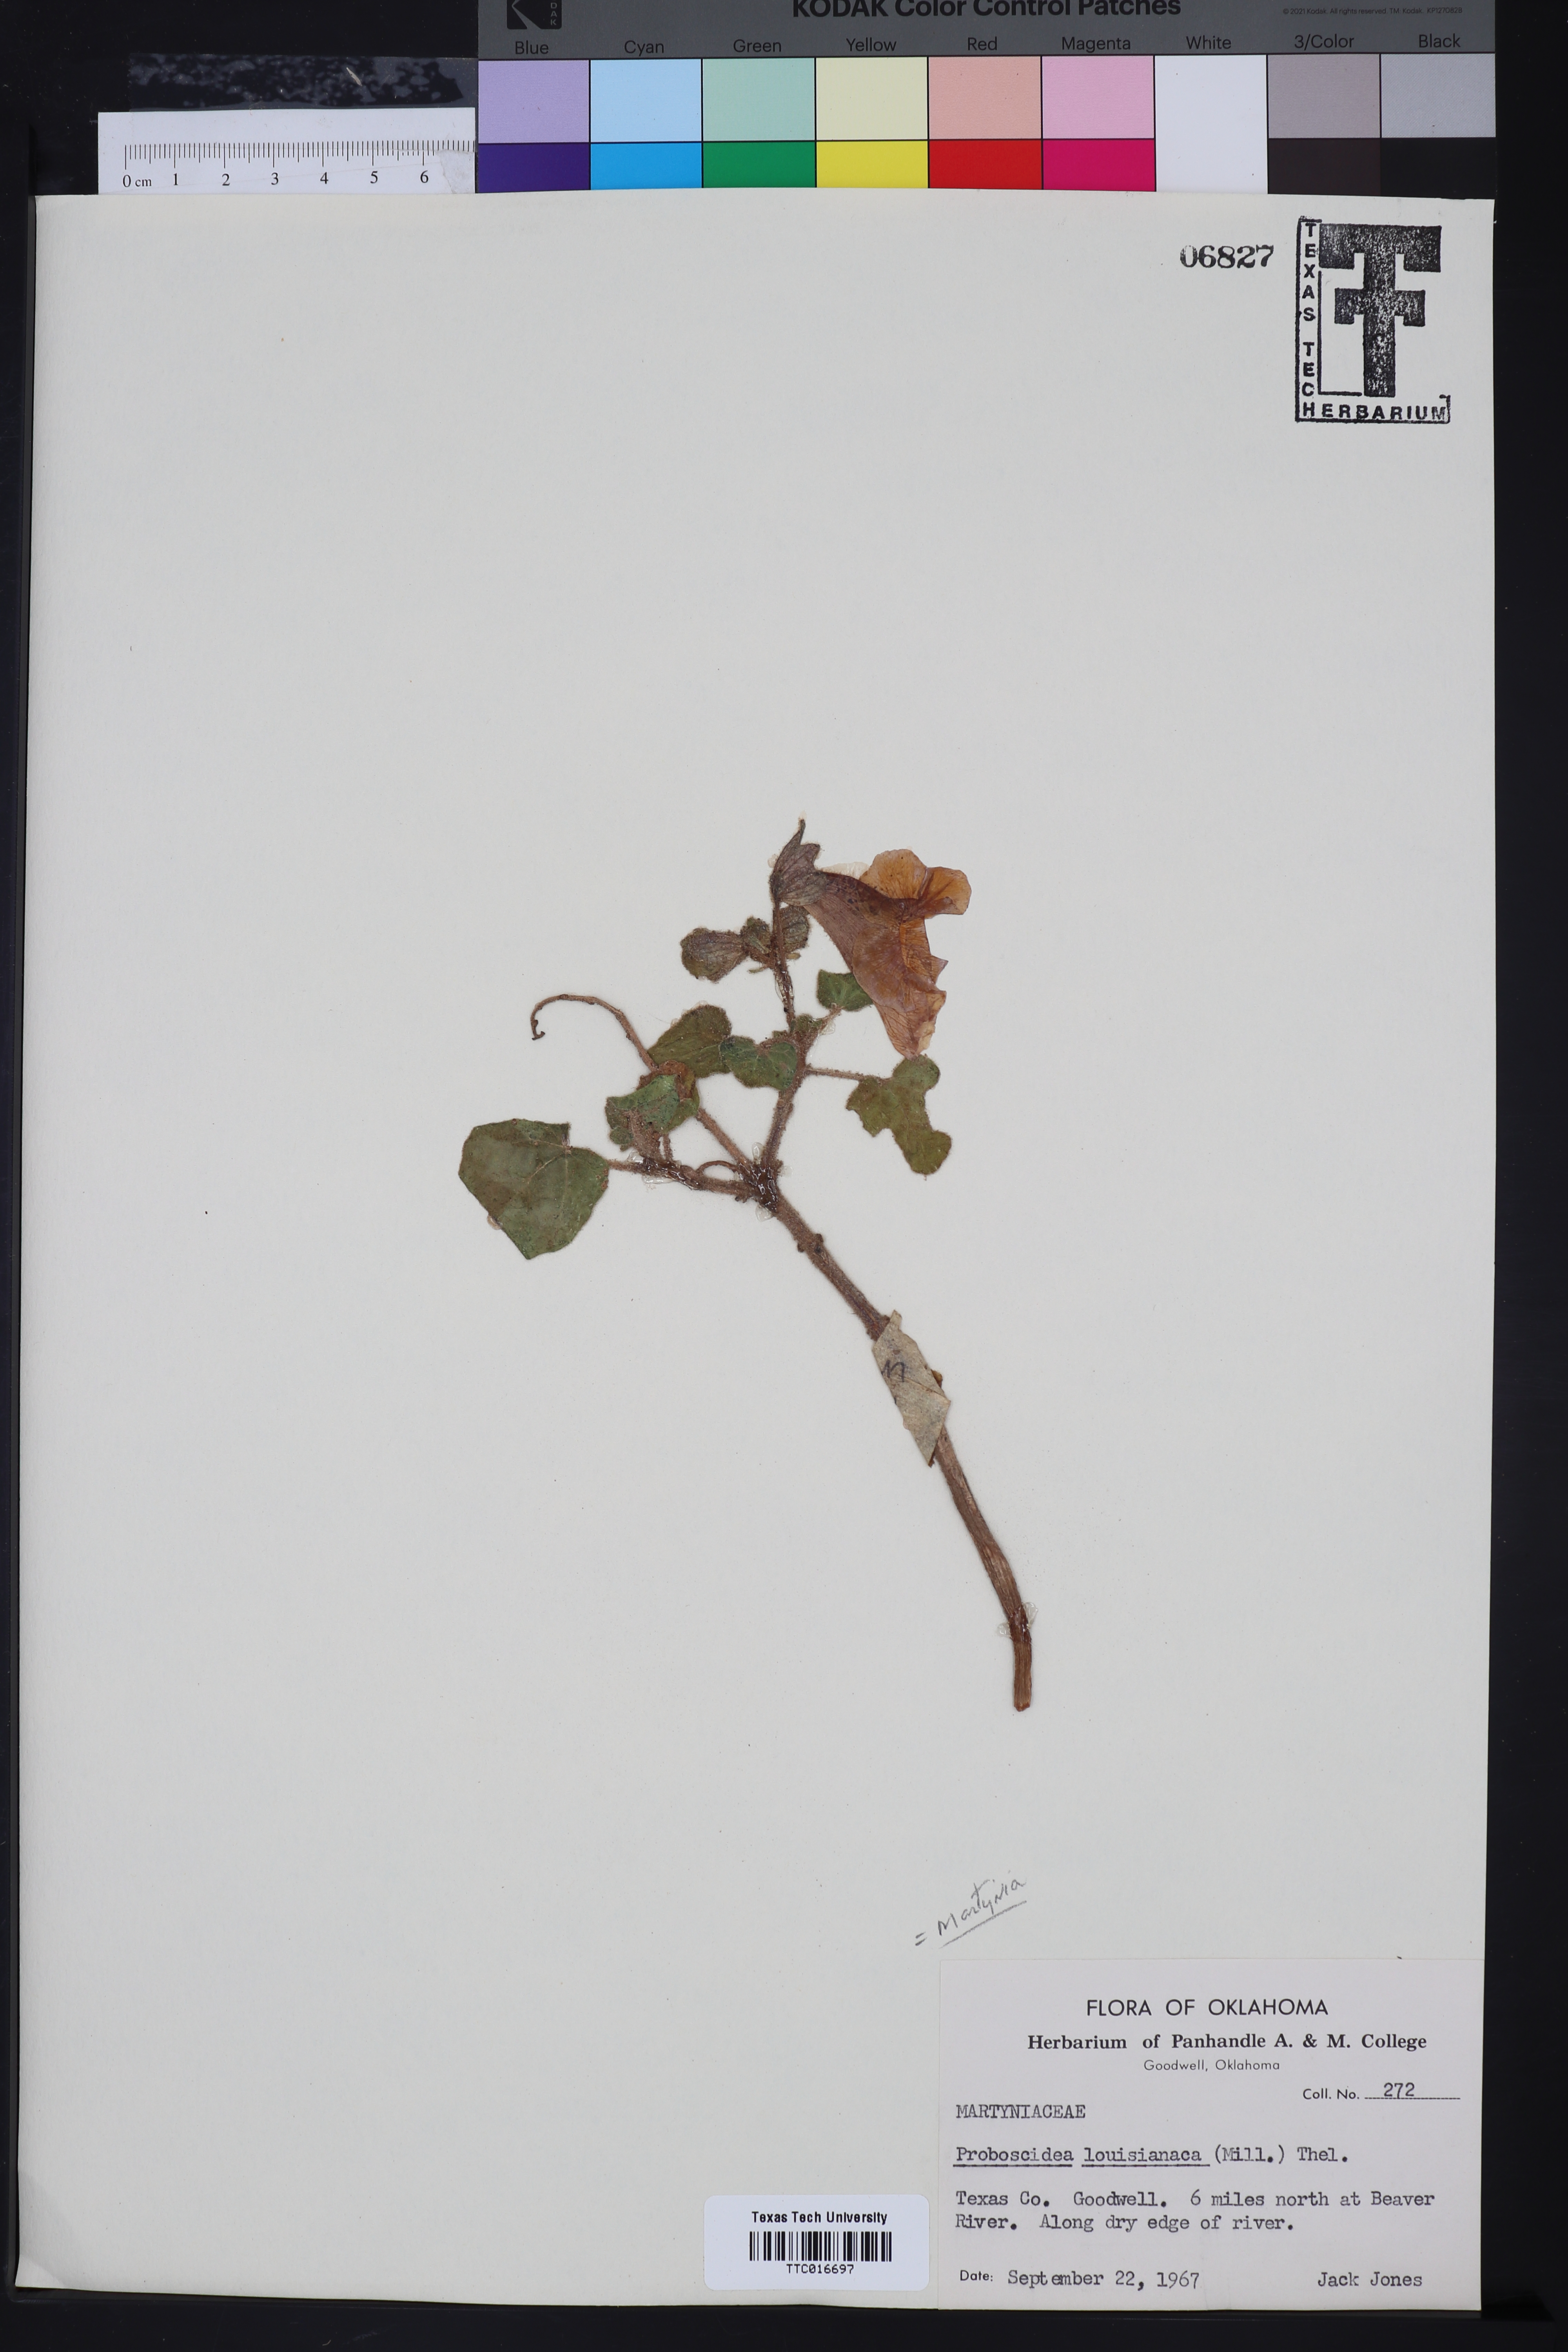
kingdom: Plantae
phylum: Tracheophyta
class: Magnoliopsida
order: Lamiales
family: Martyniaceae
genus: Proboscidea
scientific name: Proboscidea louisianica
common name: Elephant tusks
